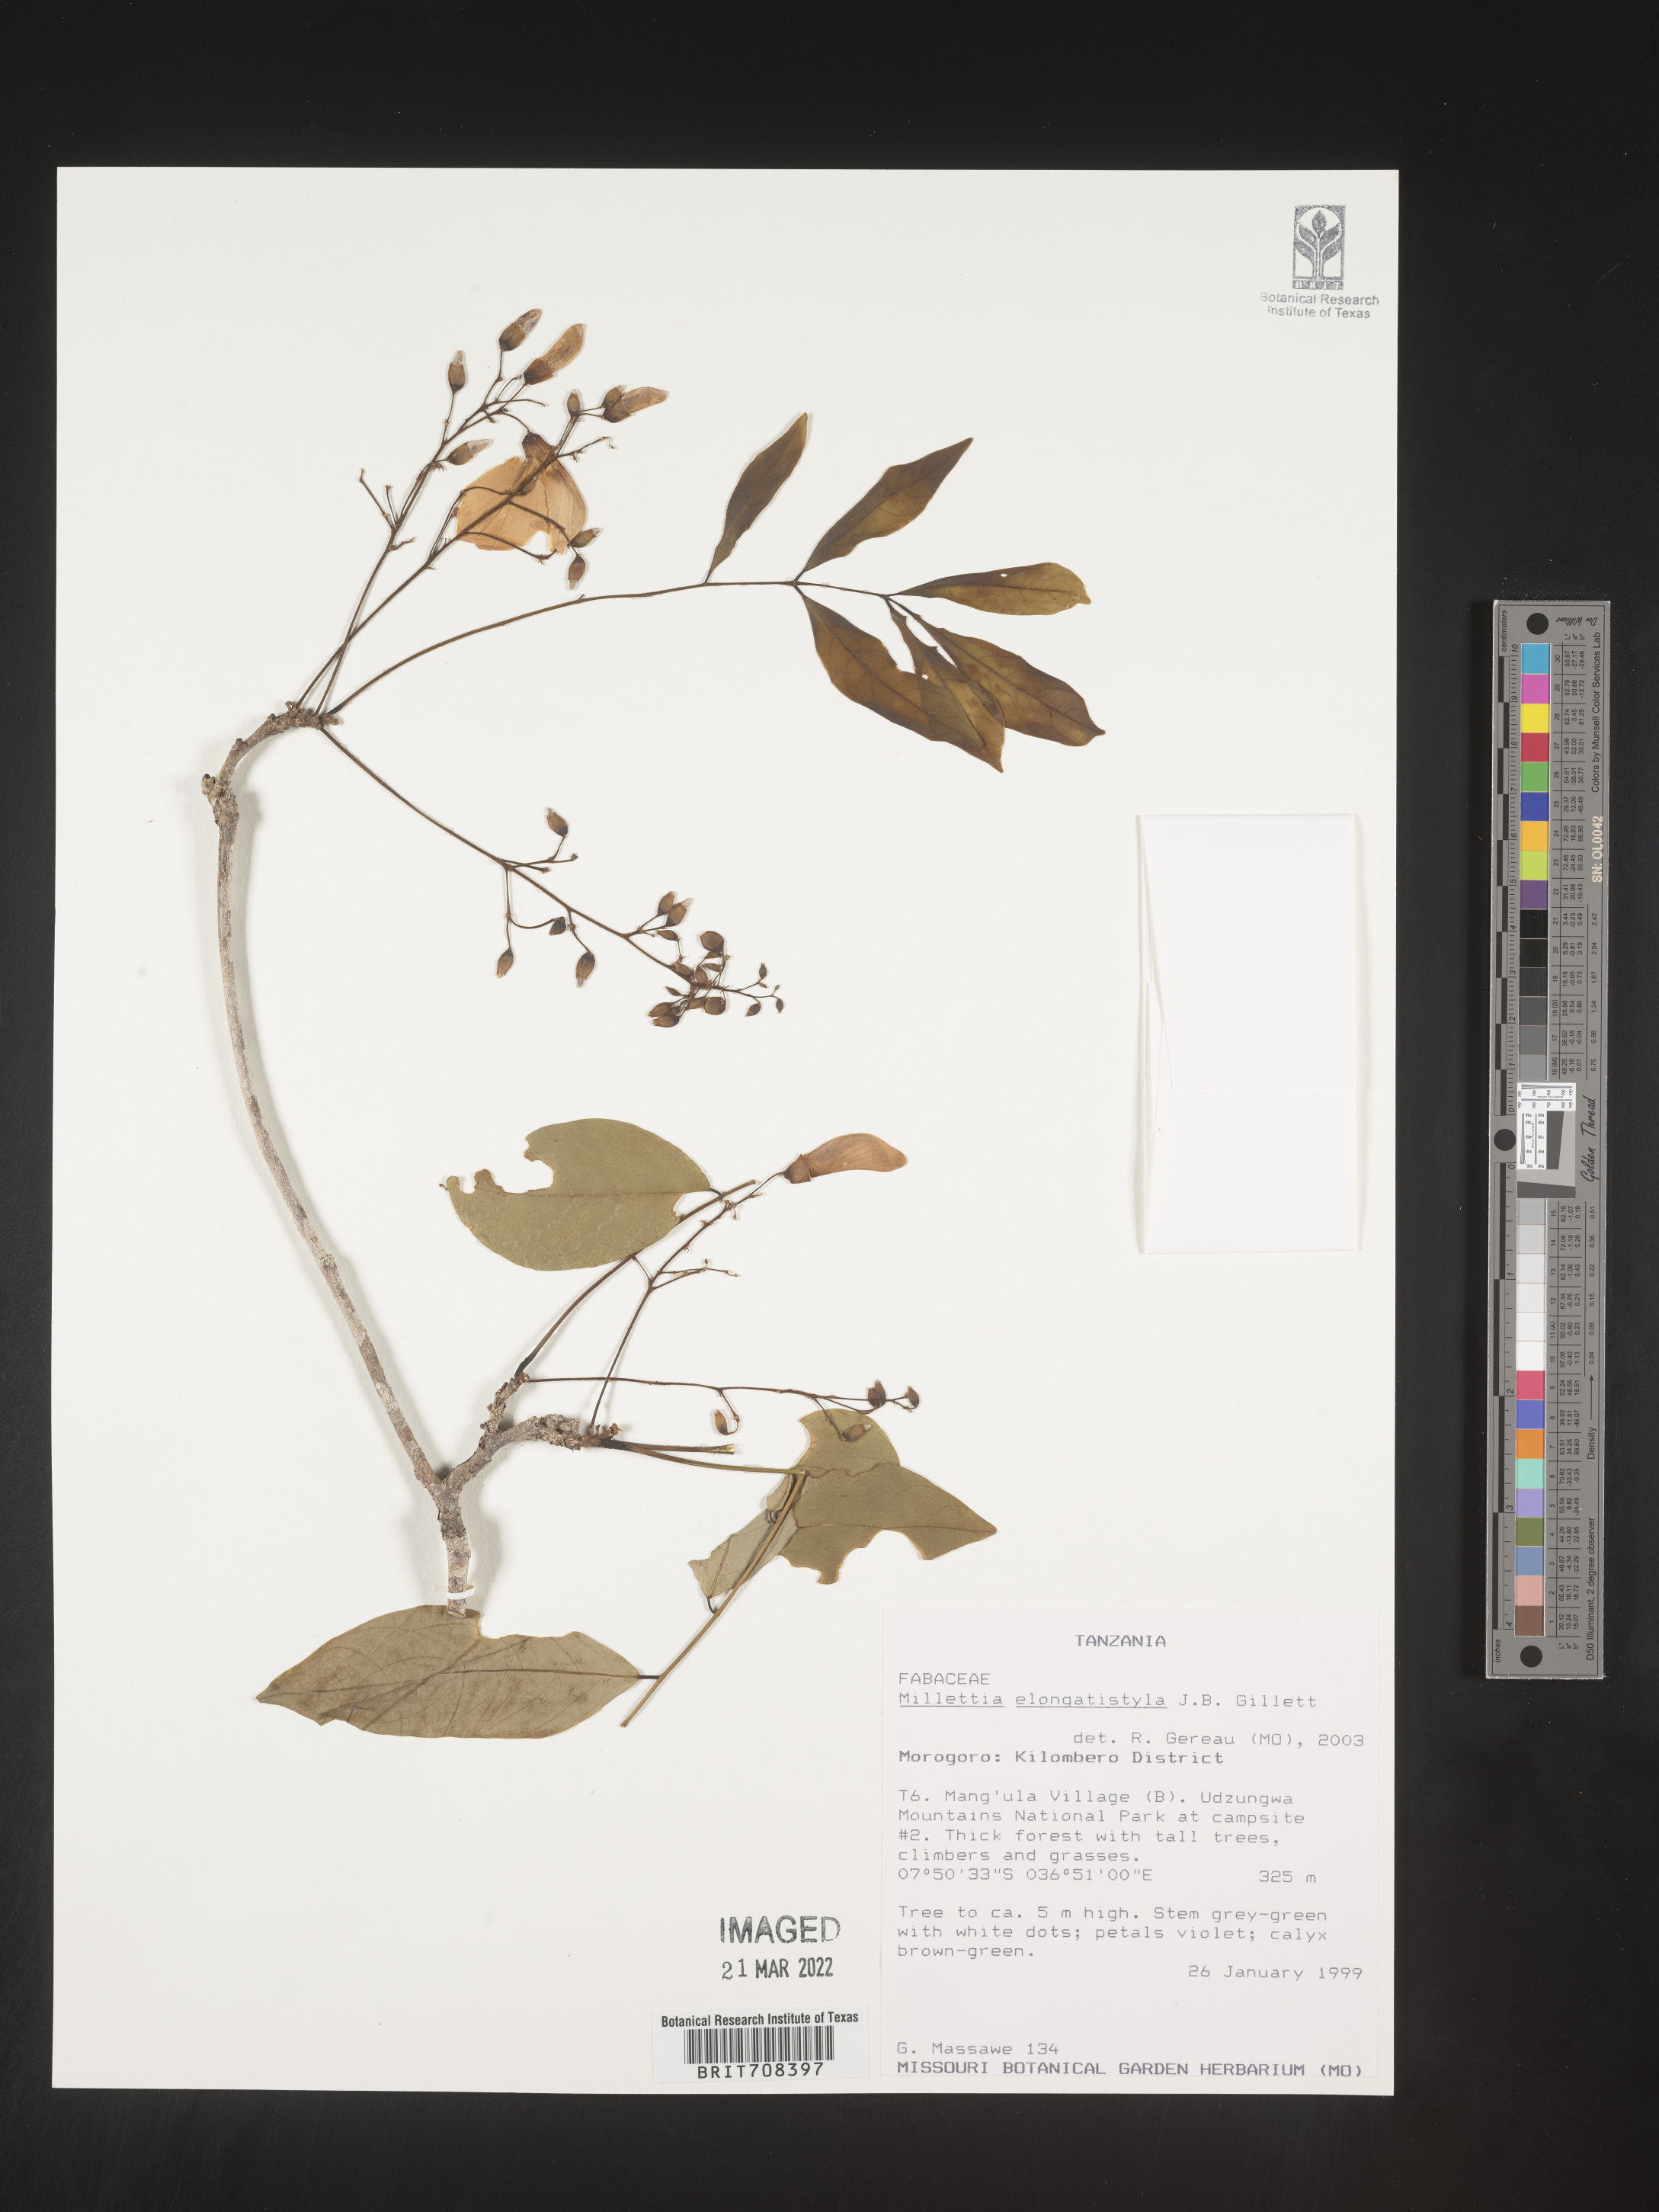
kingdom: Plantae
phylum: Tracheophyta
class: Magnoliopsida
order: Fabales
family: Fabaceae
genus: Millettia
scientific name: Millettia
